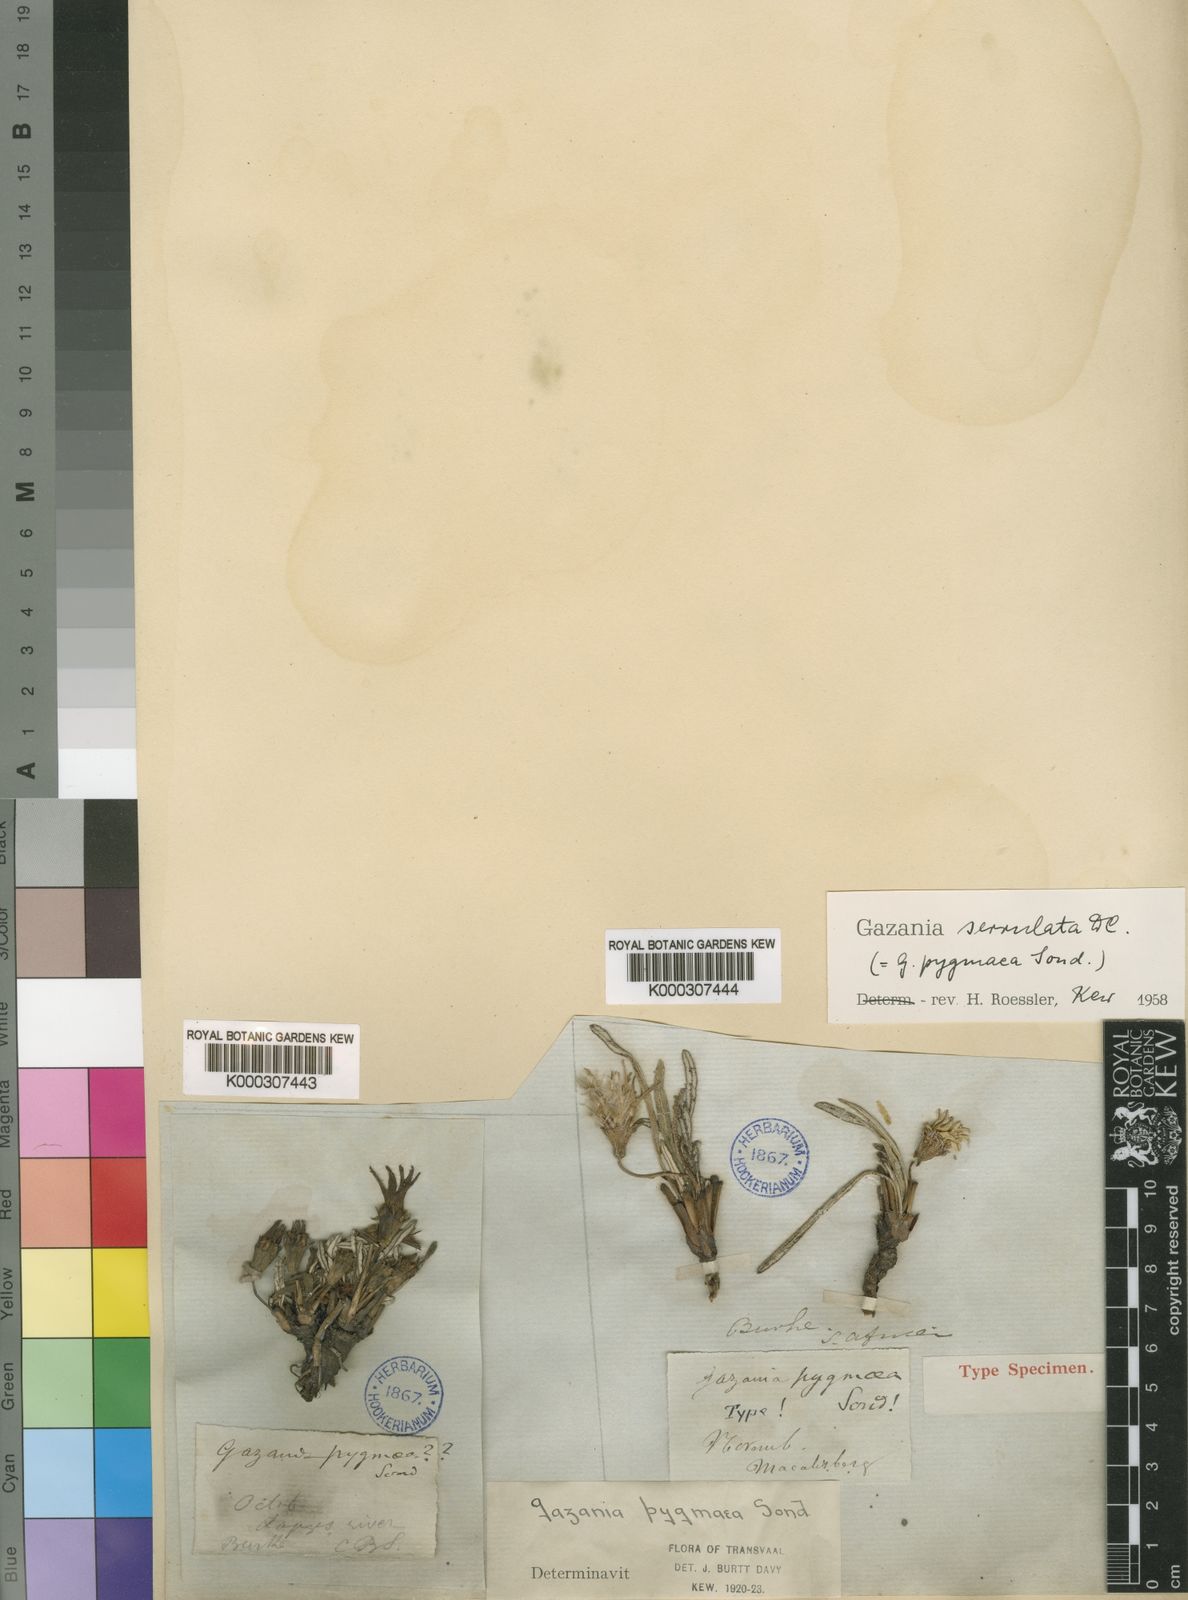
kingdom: Plantae
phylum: Tracheophyta
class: Magnoliopsida
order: Asterales
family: Asteraceae
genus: Gazania
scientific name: Gazania krebsiana
